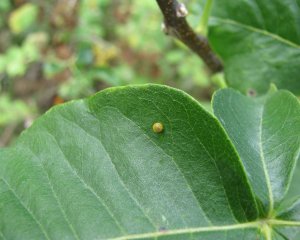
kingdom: Animalia
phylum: Arthropoda
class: Insecta
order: Lepidoptera
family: Papilionidae
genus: Papilio
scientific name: Papilio cresphontes
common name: Eastern Giant Swallowtail
